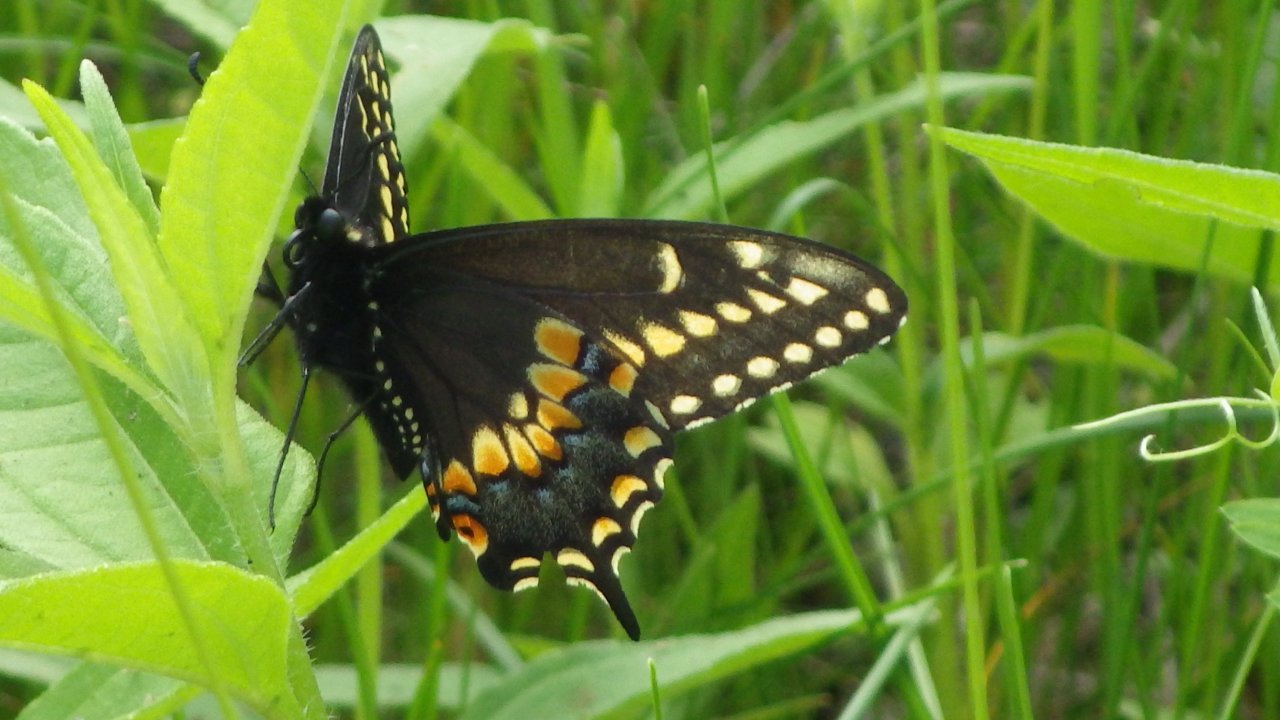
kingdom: Animalia
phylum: Arthropoda
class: Insecta
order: Lepidoptera
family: Papilionidae
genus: Papilio
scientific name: Papilio polyxenes
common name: Black Swallowtail
